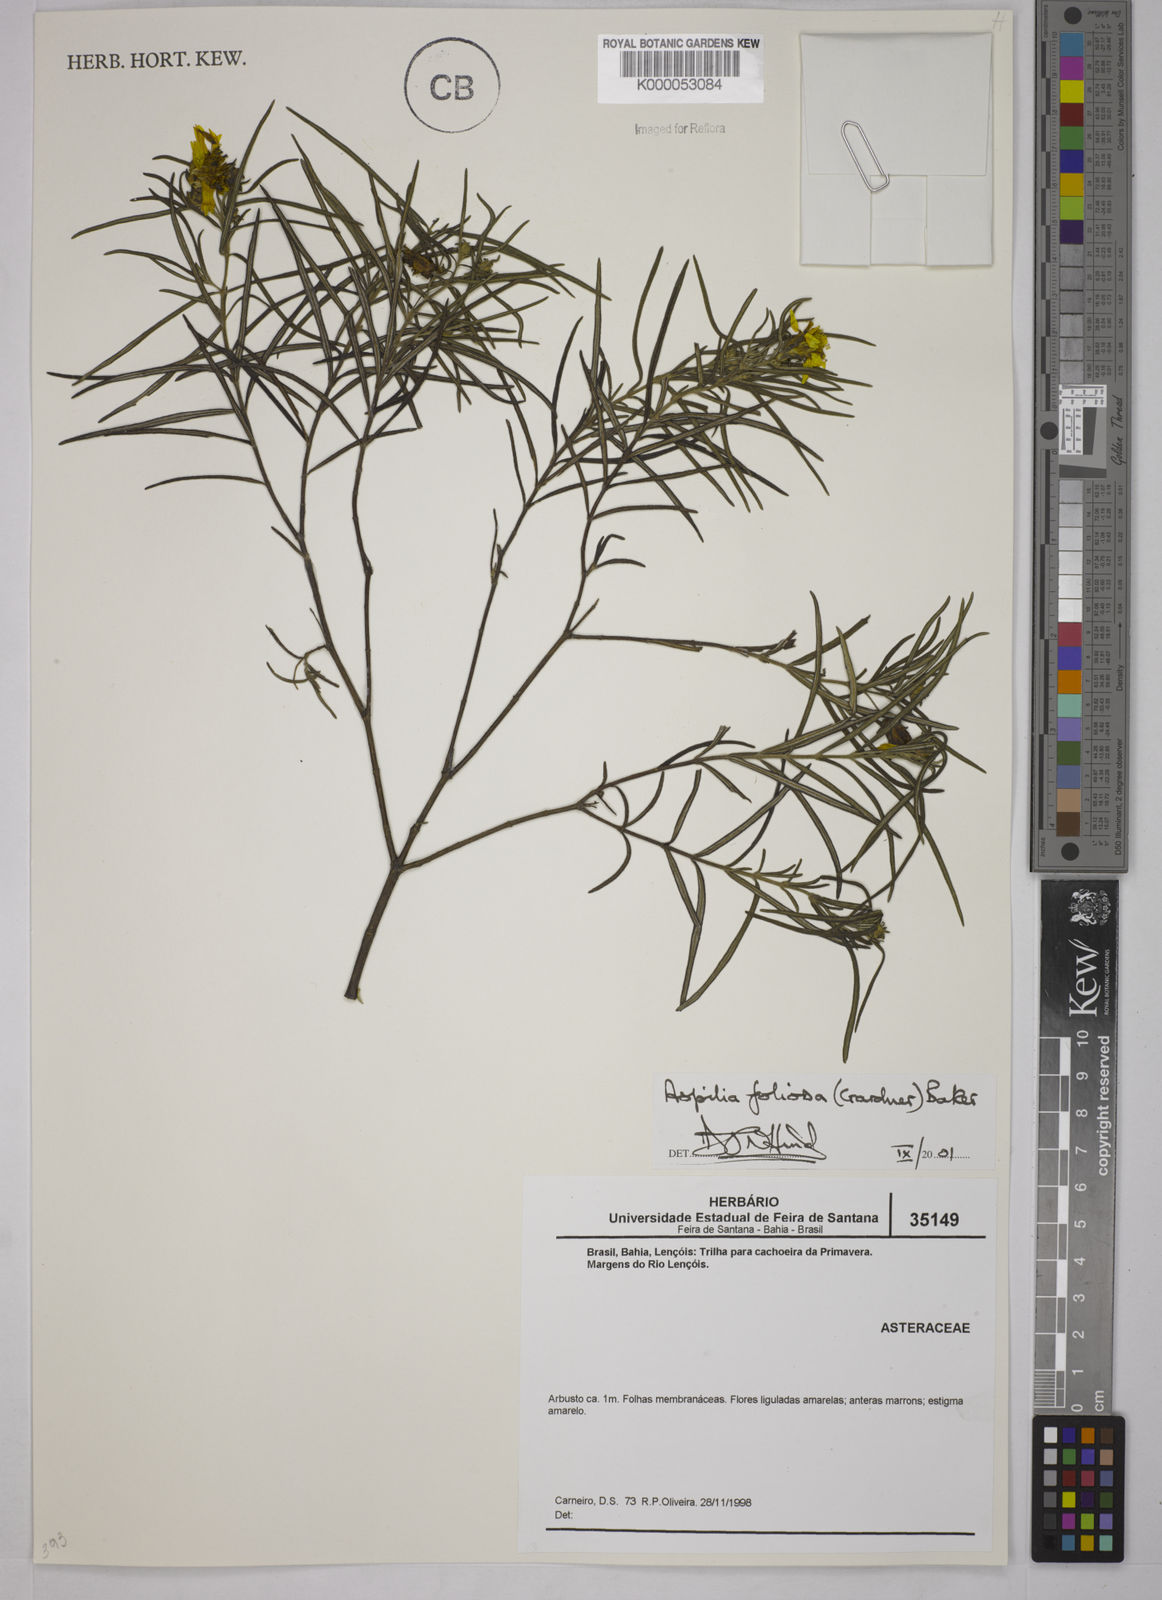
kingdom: Plantae
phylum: Tracheophyta
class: Magnoliopsida
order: Asterales
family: Asteraceae
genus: Aspilia
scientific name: Aspilia
